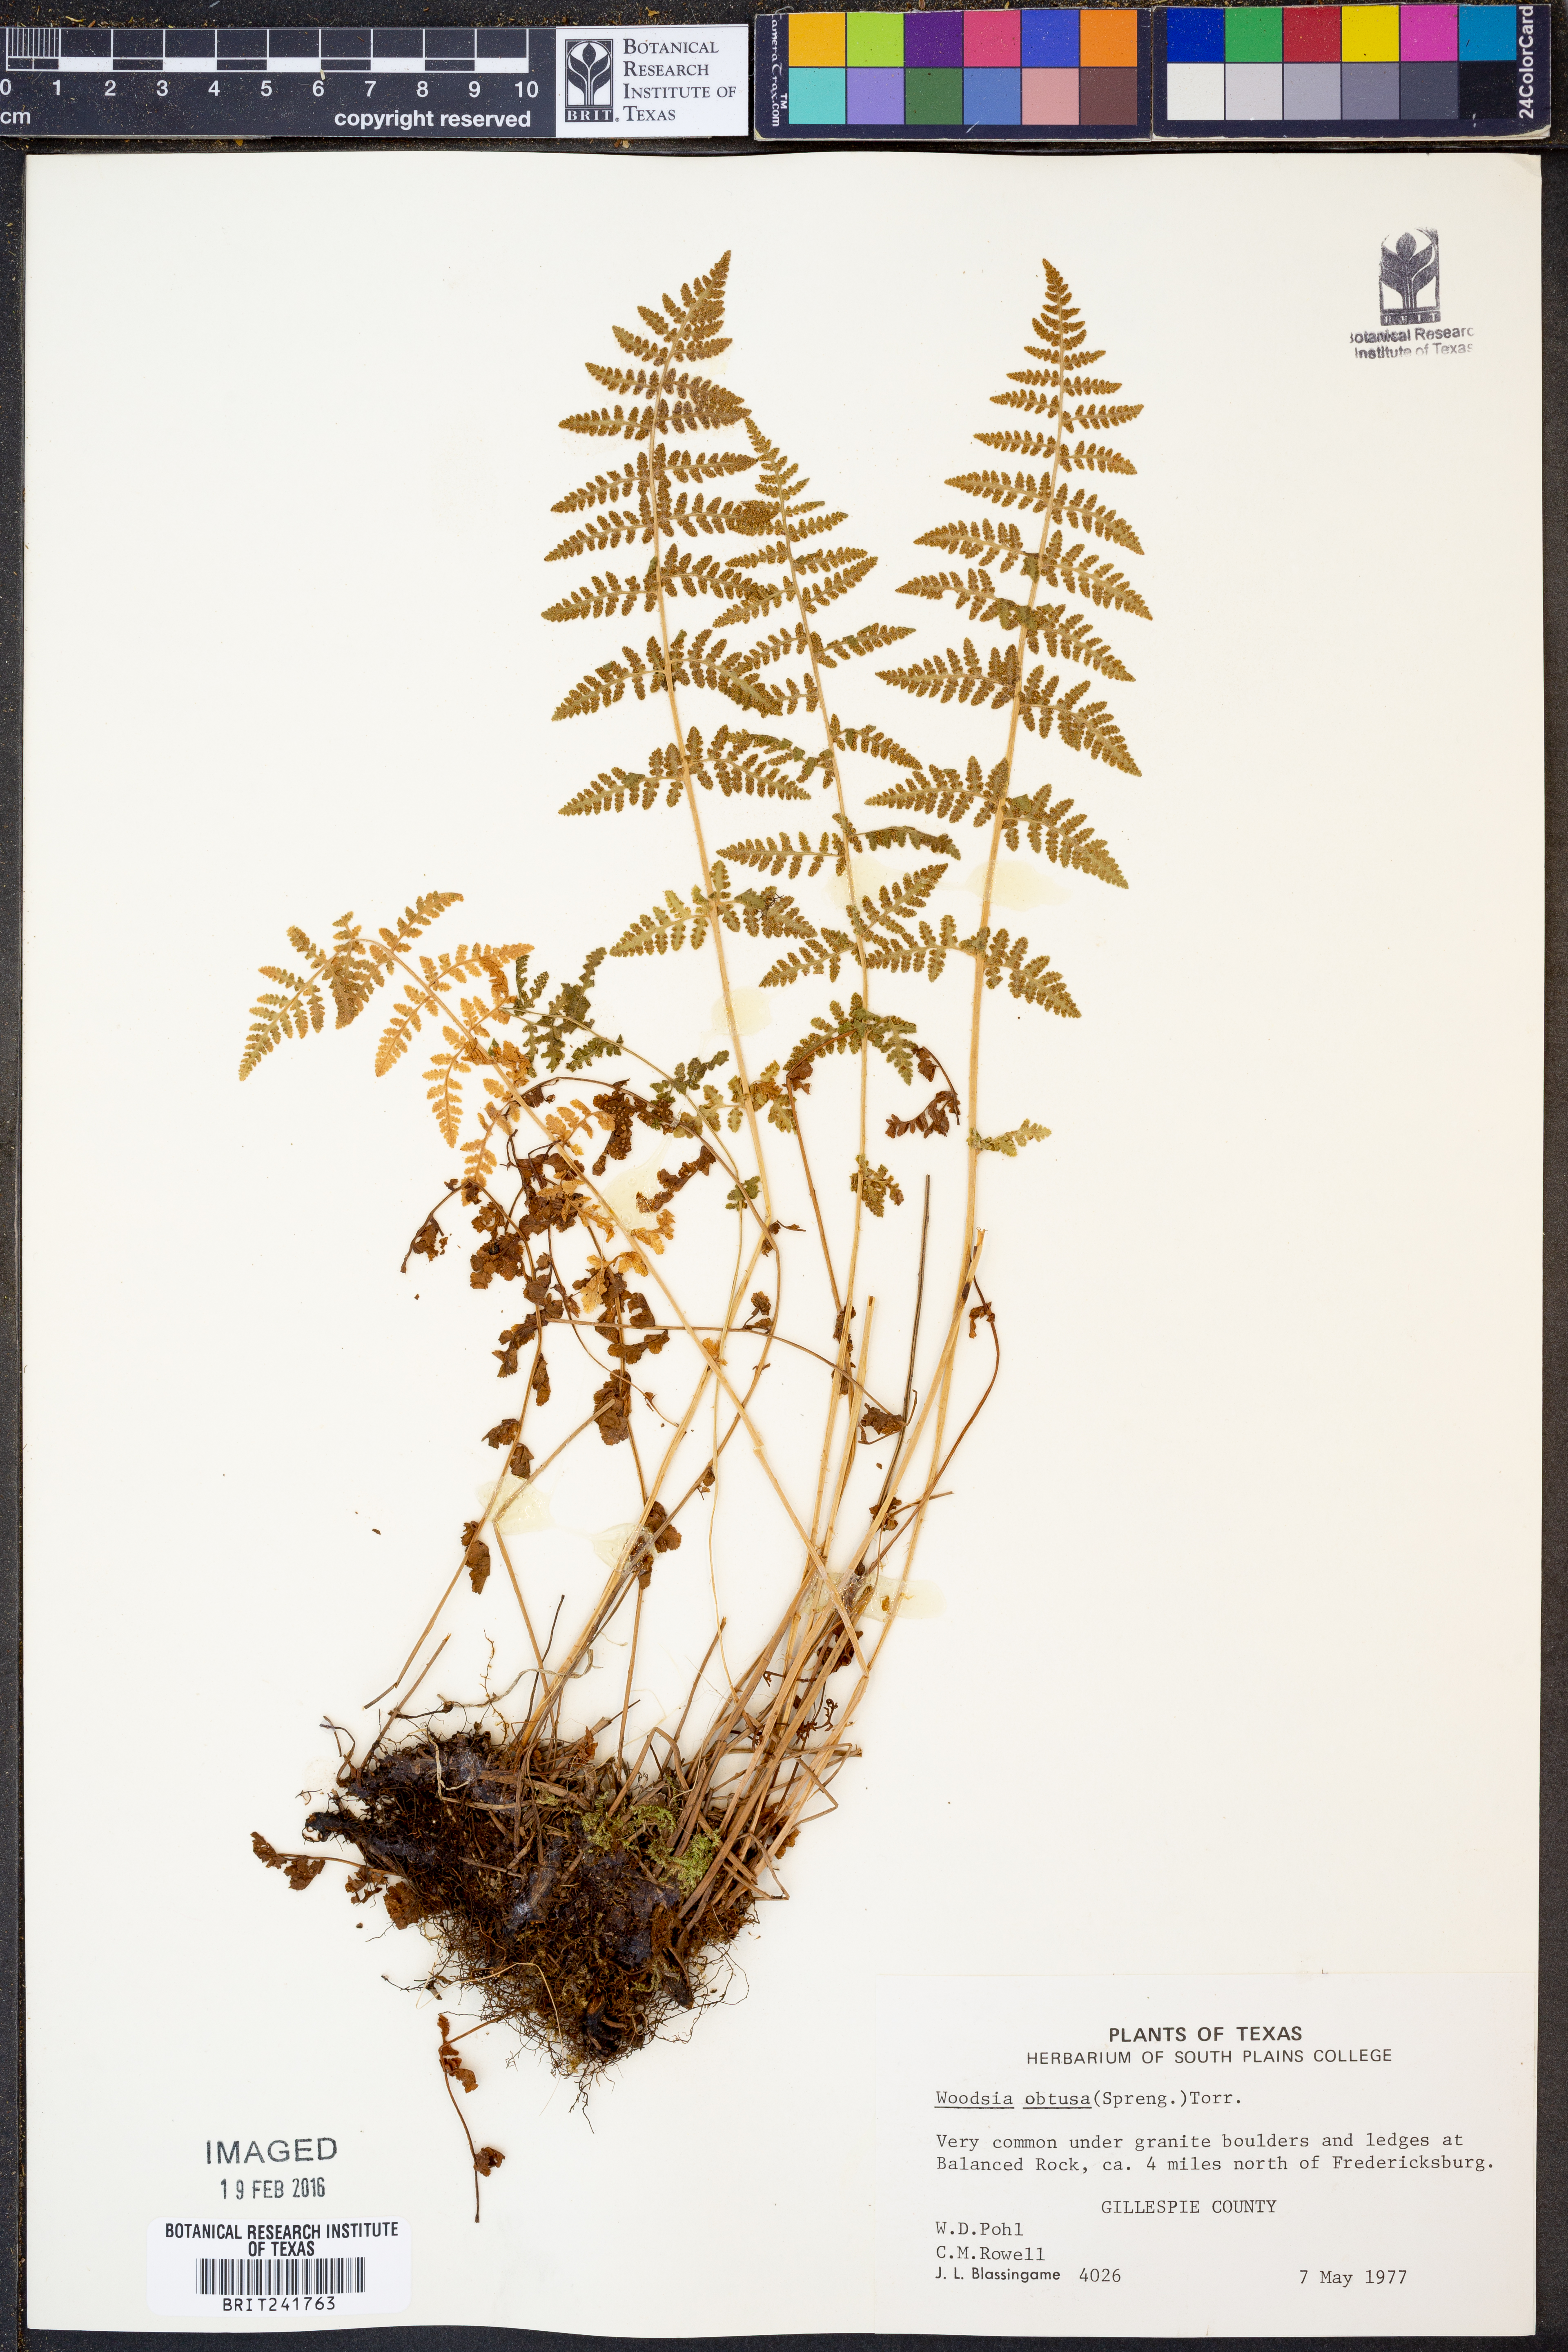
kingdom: Plantae
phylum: Tracheophyta
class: Polypodiopsida
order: Polypodiales
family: Woodsiaceae
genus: Physematium
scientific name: Physematium obtusum
